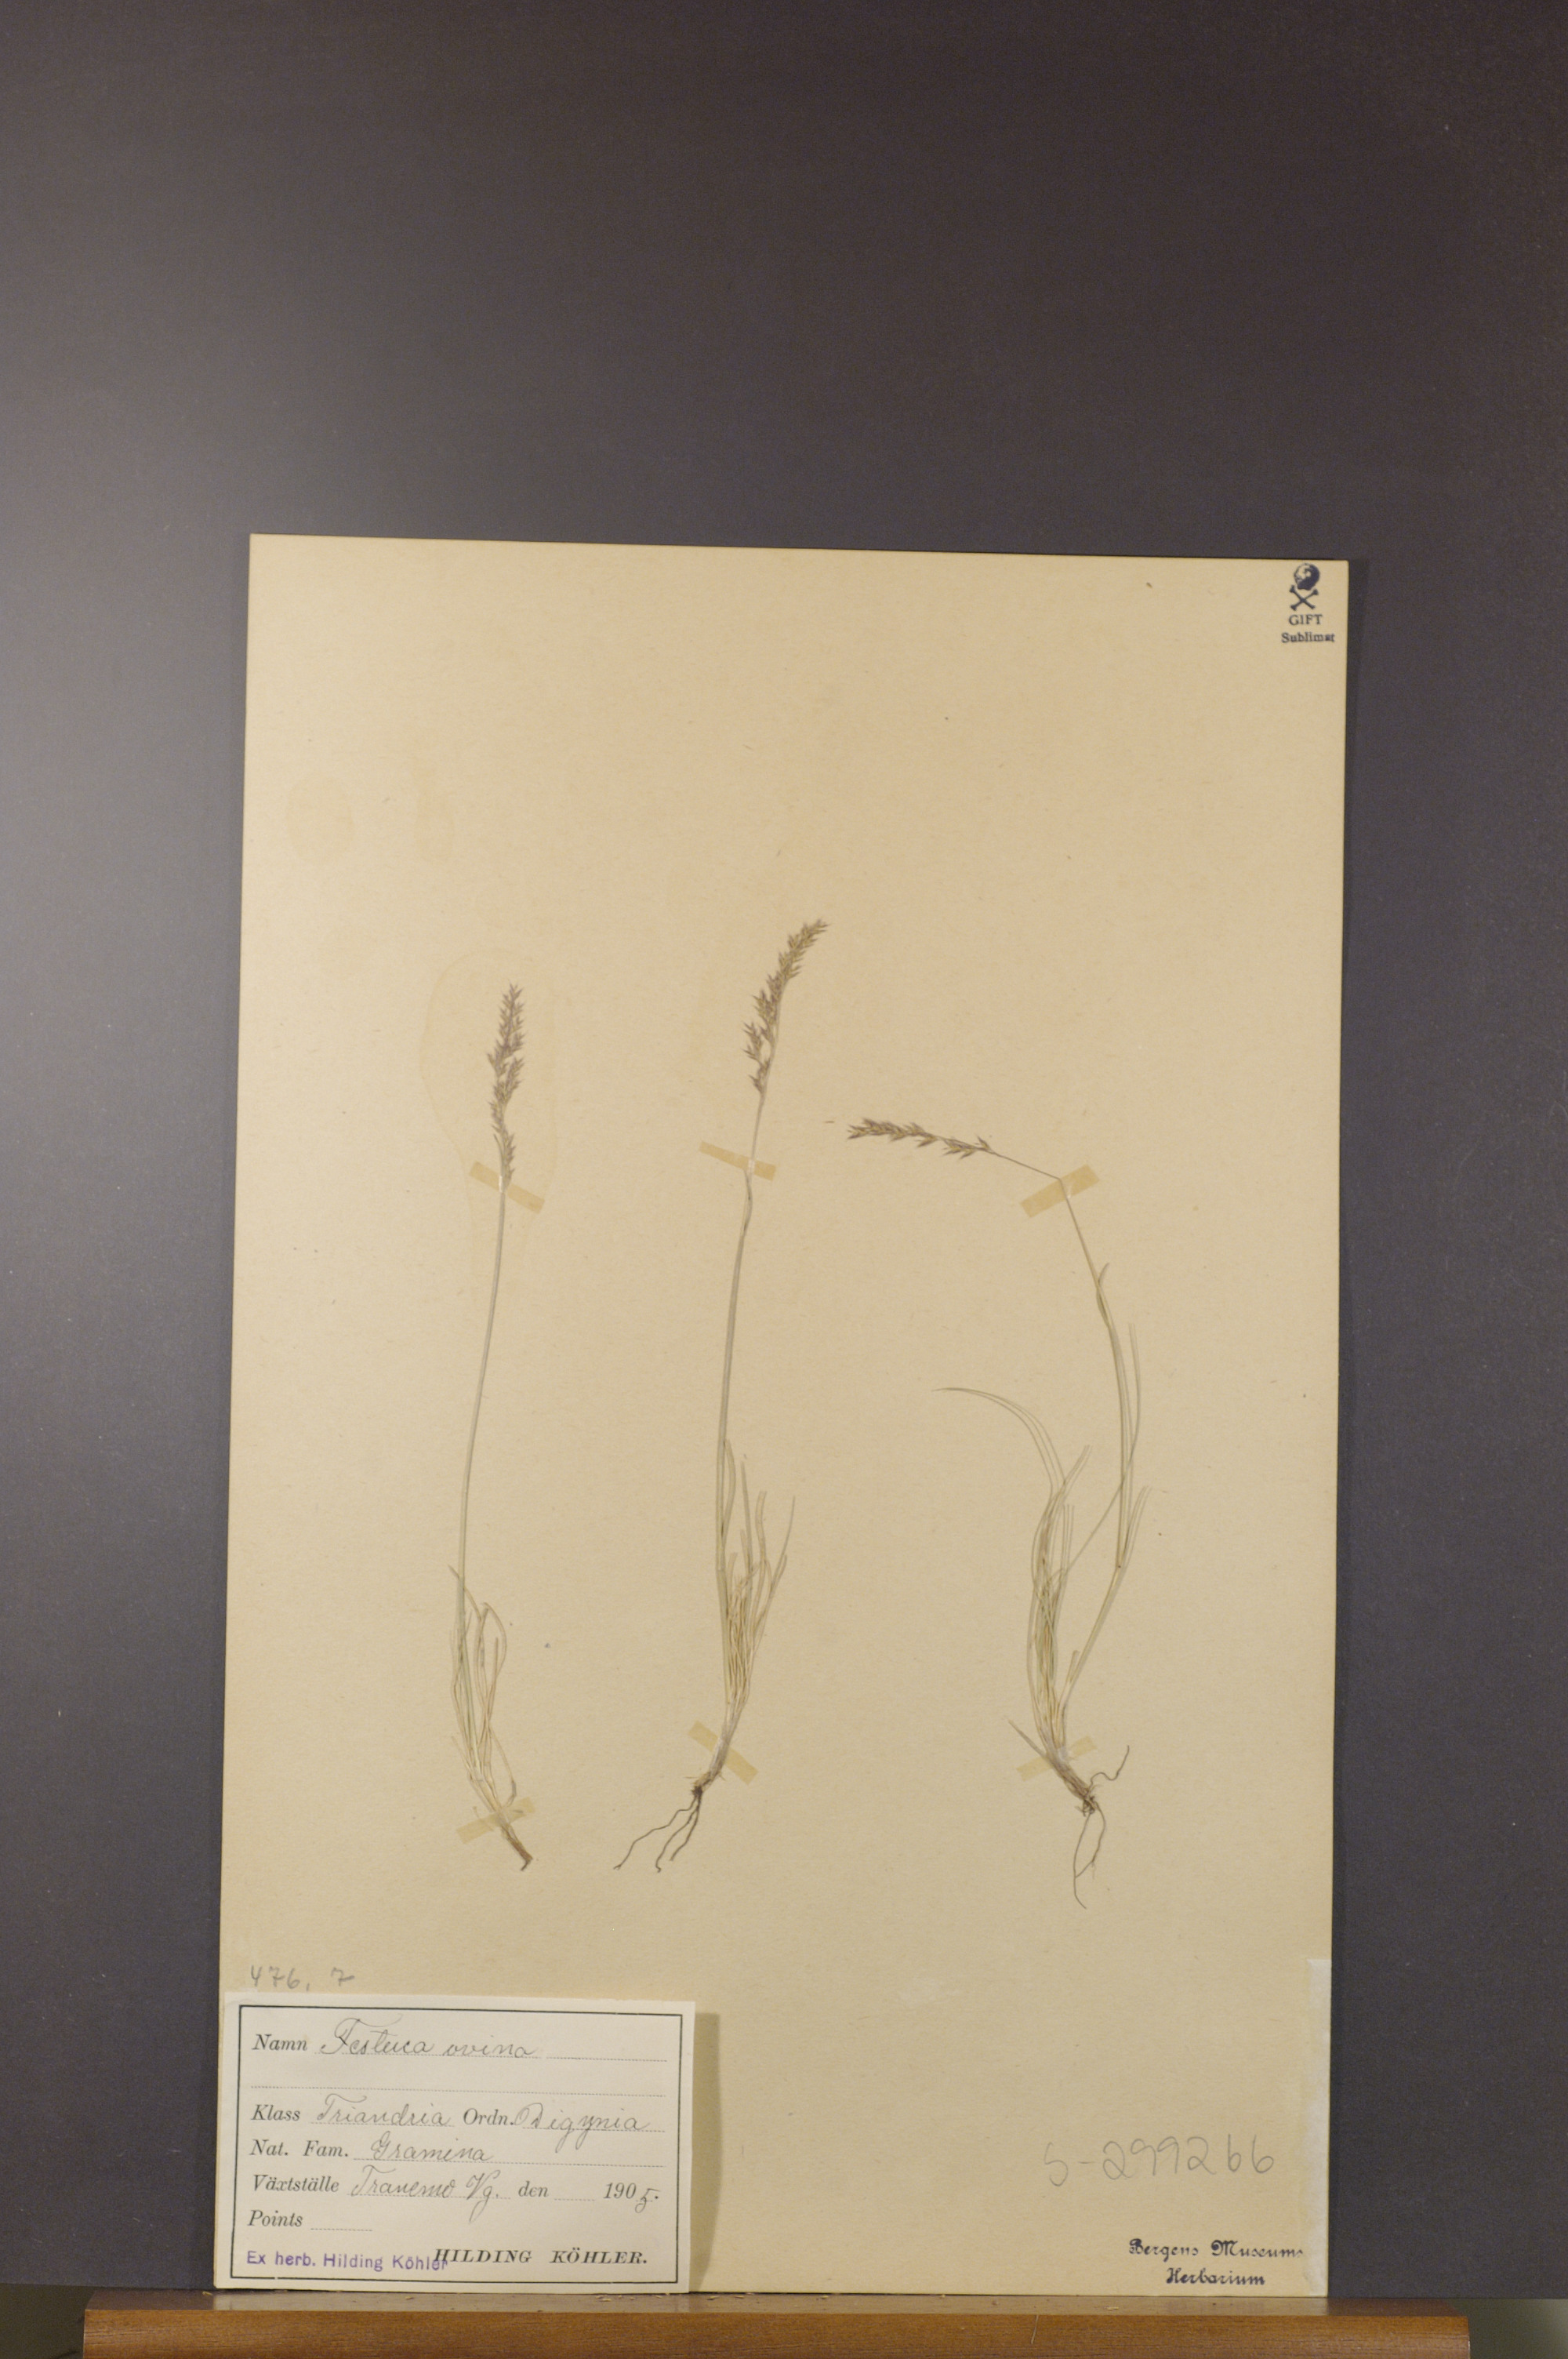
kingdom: Plantae
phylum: Tracheophyta
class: Liliopsida
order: Poales
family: Poaceae
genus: Festuca
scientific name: Festuca ovina
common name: Sheep fescue
